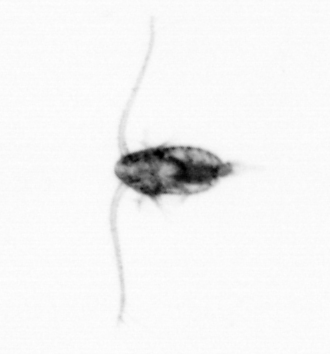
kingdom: Animalia
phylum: Arthropoda
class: Copepoda
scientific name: Copepoda
